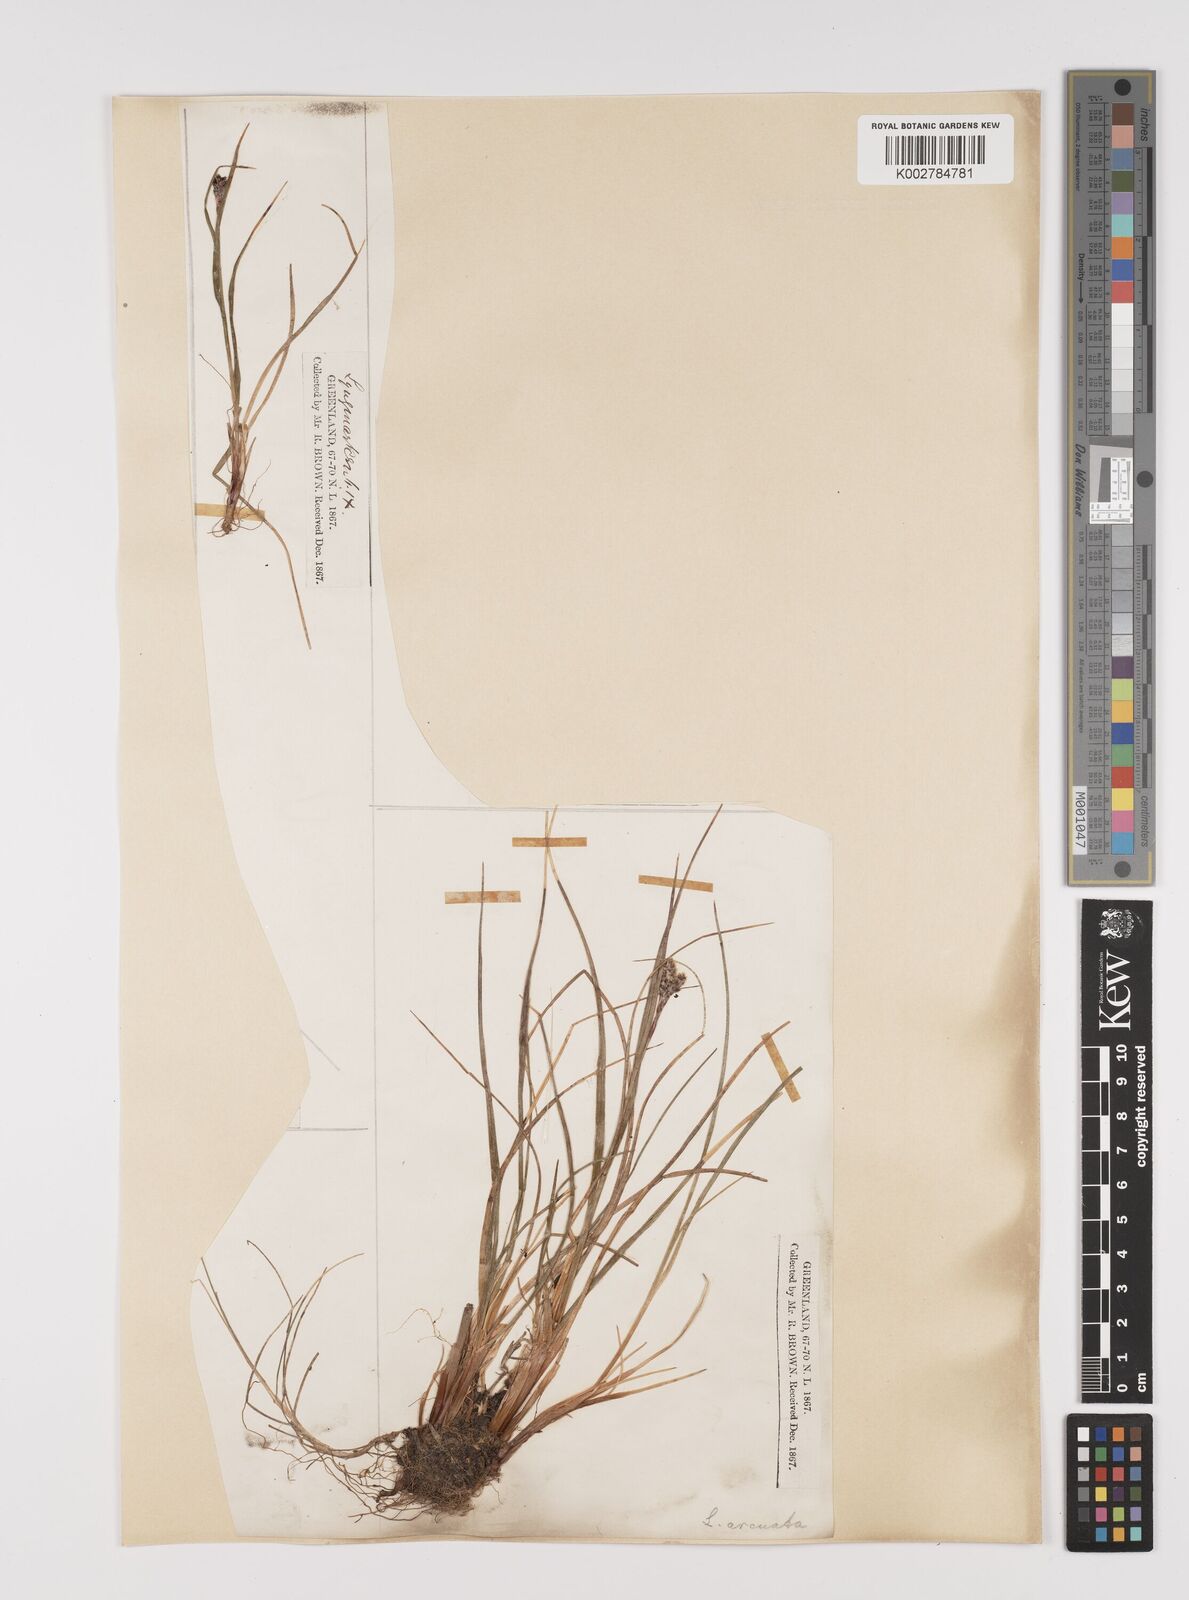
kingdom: Plantae
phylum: Tracheophyta
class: Liliopsida
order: Poales
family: Juncaceae
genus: Luzula
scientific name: Luzula confusa
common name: Northern wood rush
